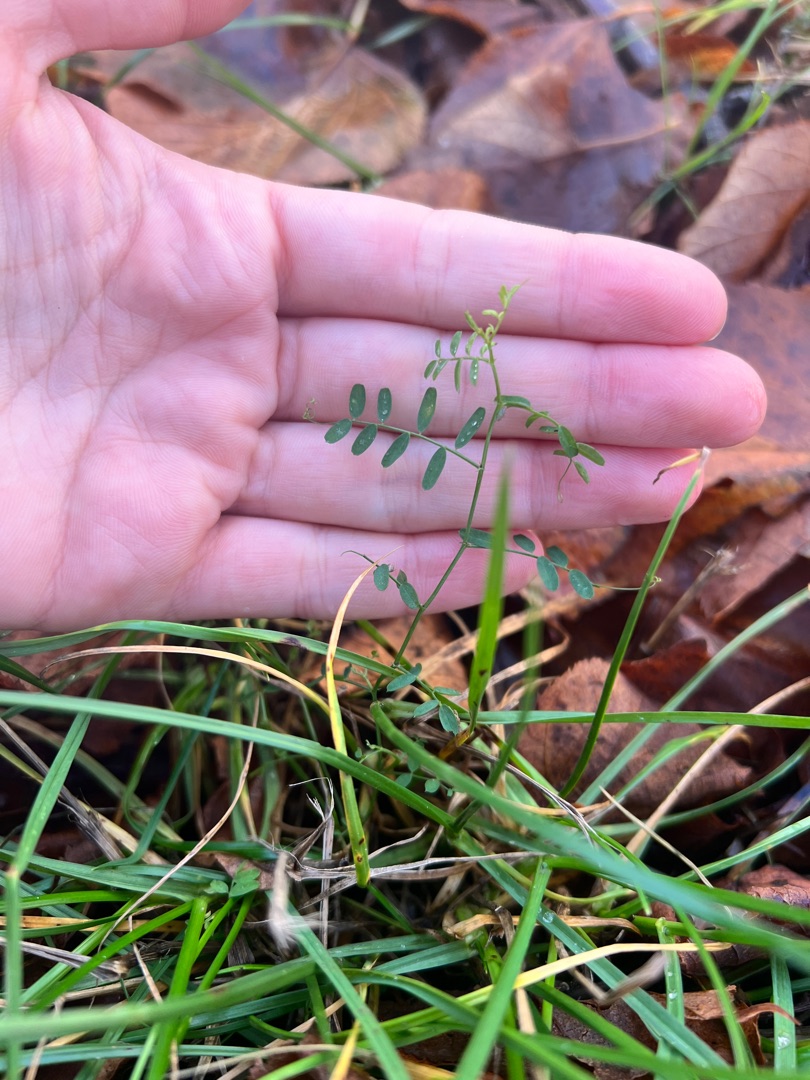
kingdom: Plantae
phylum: Tracheophyta
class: Magnoliopsida
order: Fabales
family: Fabaceae
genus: Vicia
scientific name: Vicia hirsuta
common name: Tofrøet vikke
